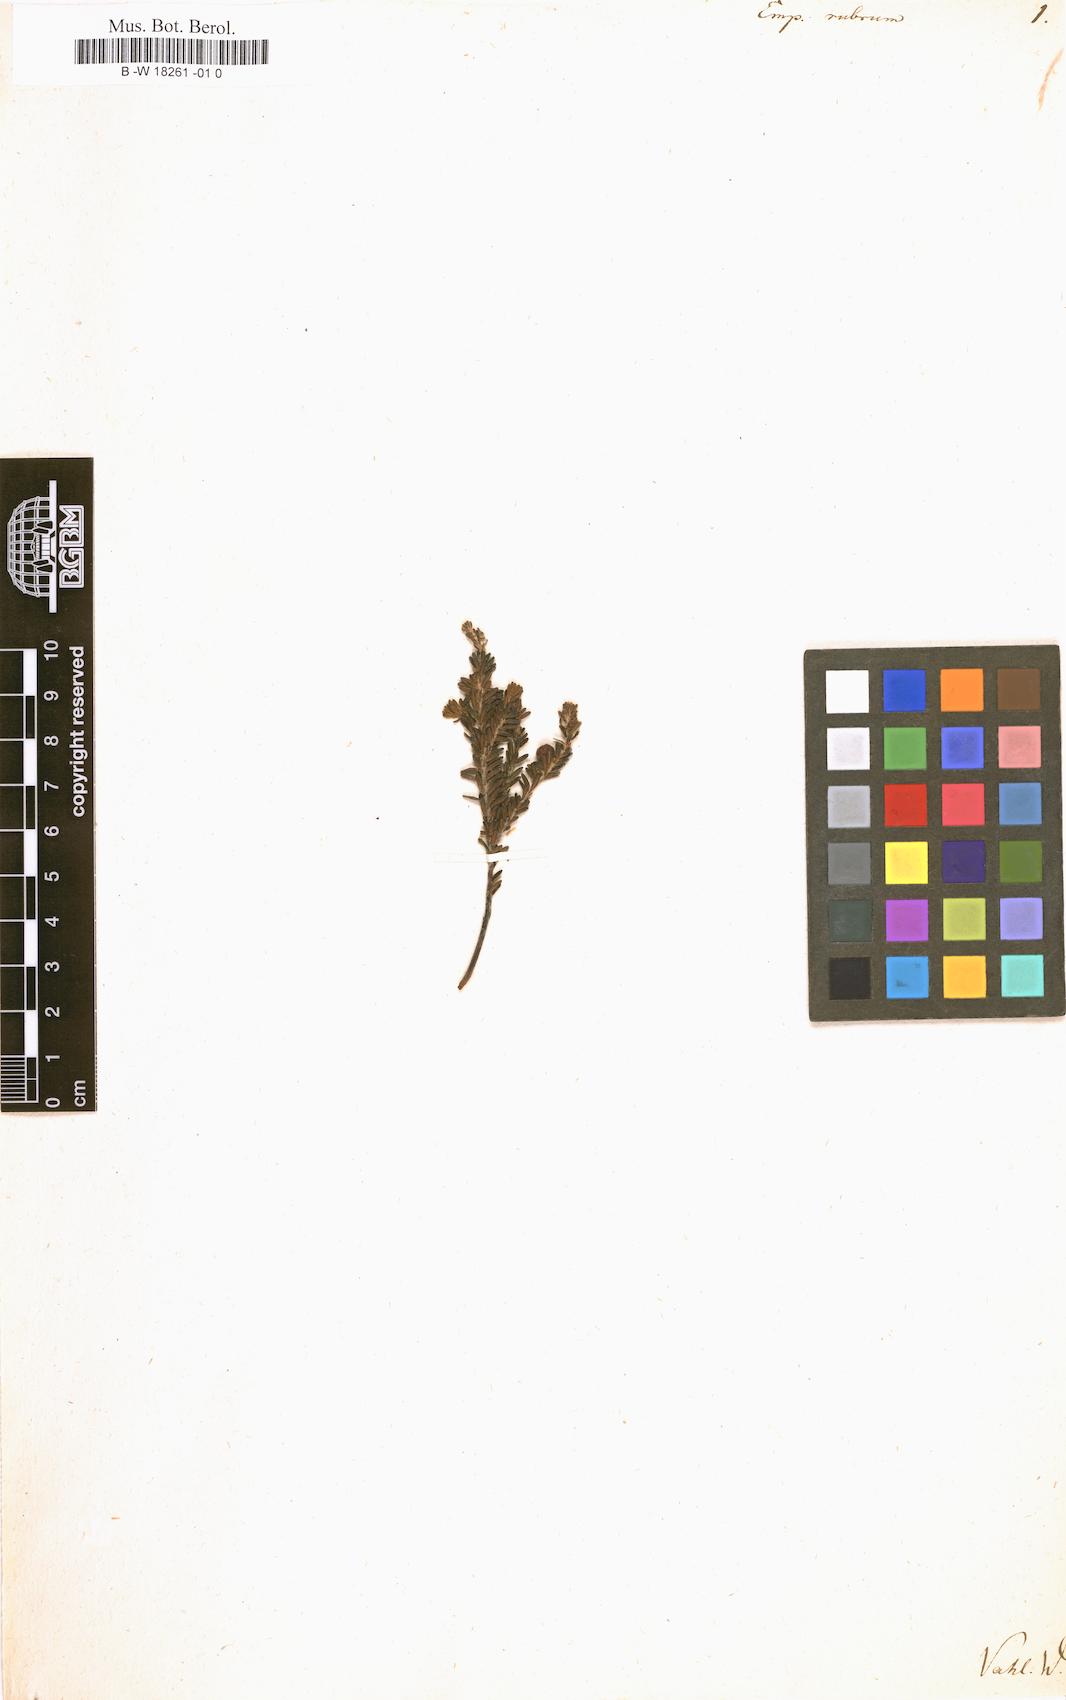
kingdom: Plantae
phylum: Tracheophyta
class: Magnoliopsida
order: Ericales
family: Ericaceae
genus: Empetrum
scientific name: Empetrum rubrum
